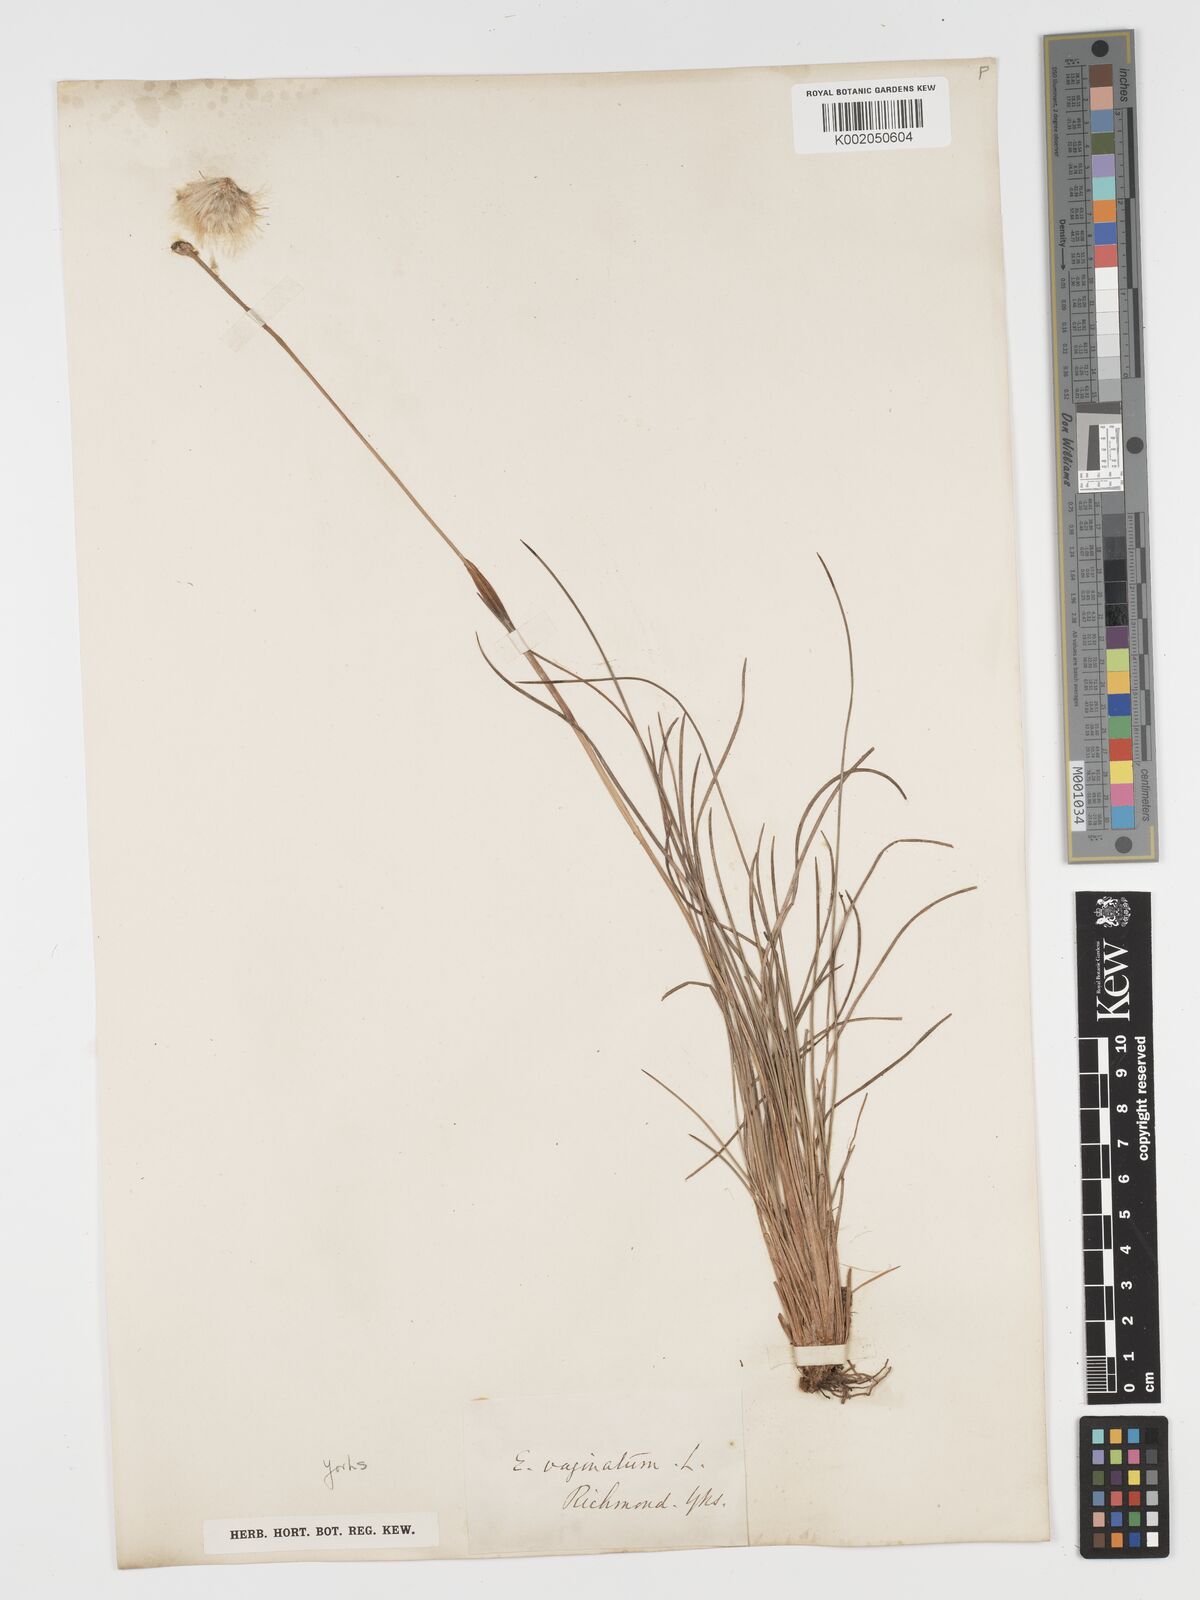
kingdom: Plantae
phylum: Tracheophyta
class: Liliopsida
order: Poales
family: Cyperaceae
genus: Eriophorum
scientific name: Eriophorum vaginatum
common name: Hare's-tail cottongrass
